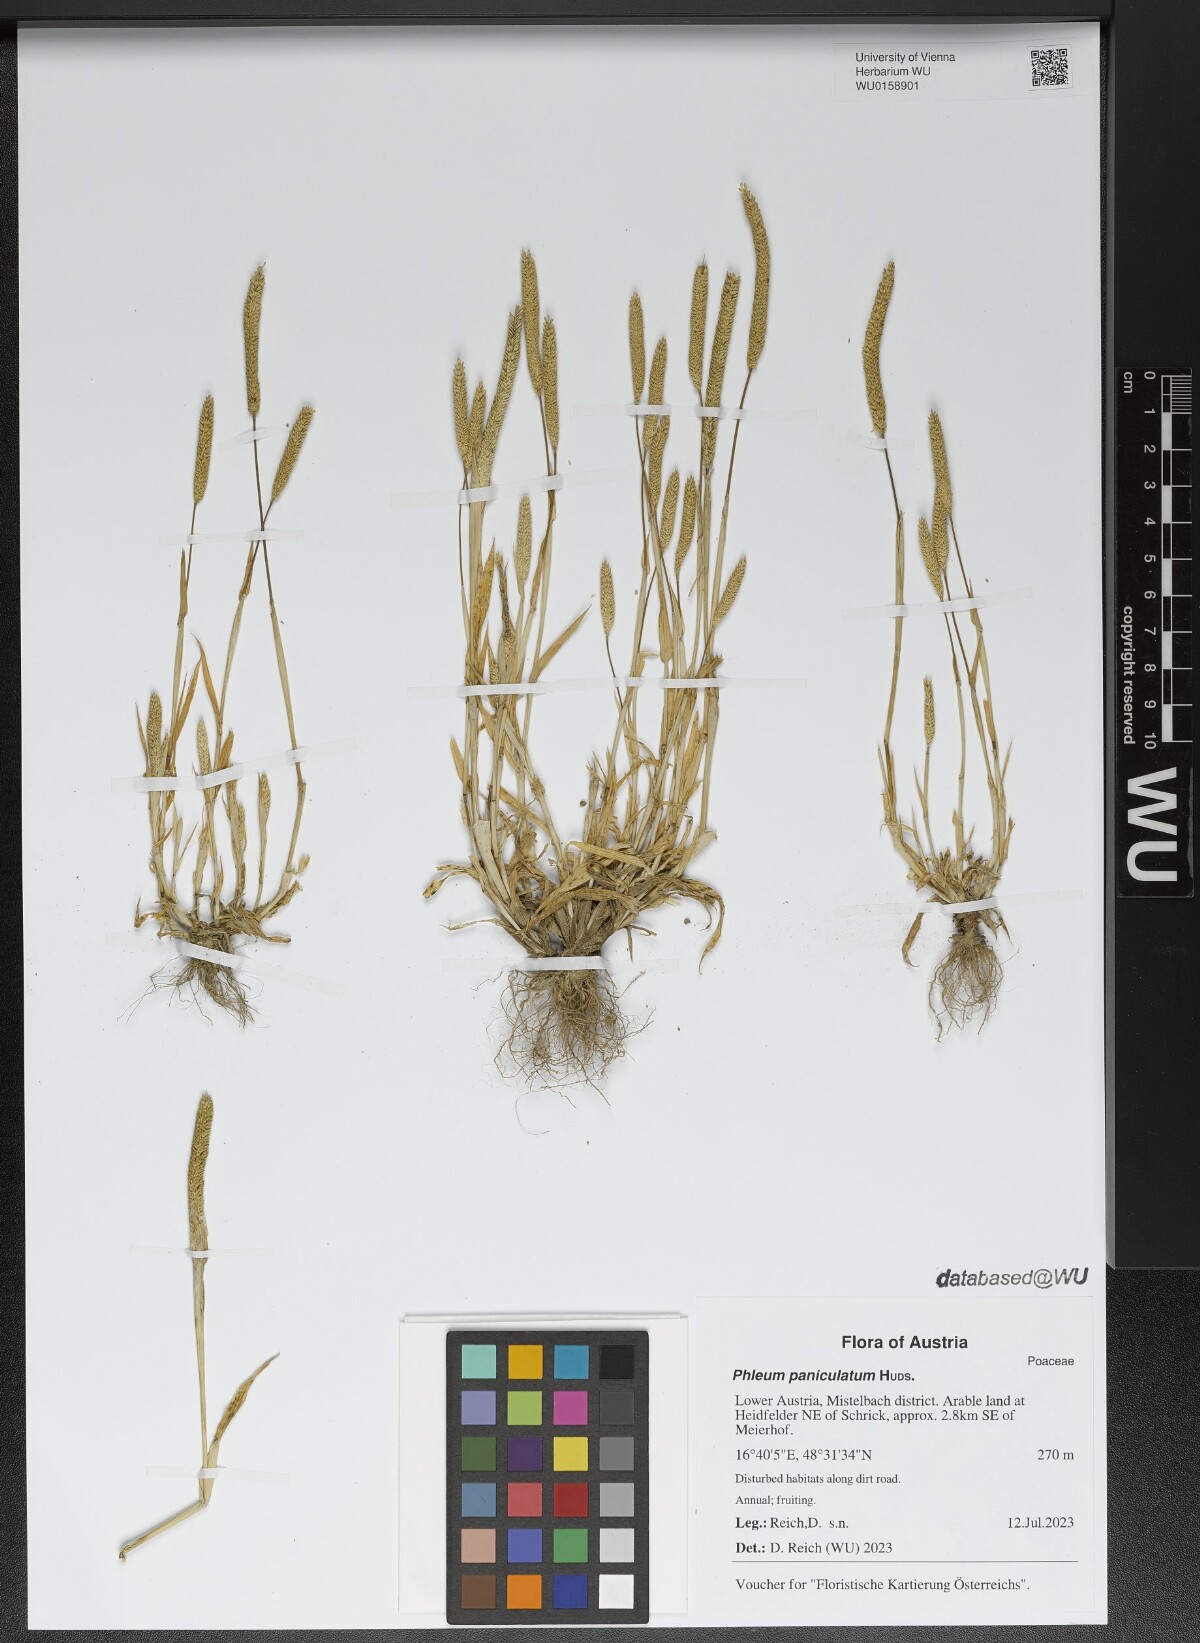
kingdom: Plantae
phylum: Tracheophyta
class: Liliopsida
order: Poales
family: Poaceae
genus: Phleum
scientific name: Phleum paniculatum
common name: British timothy
